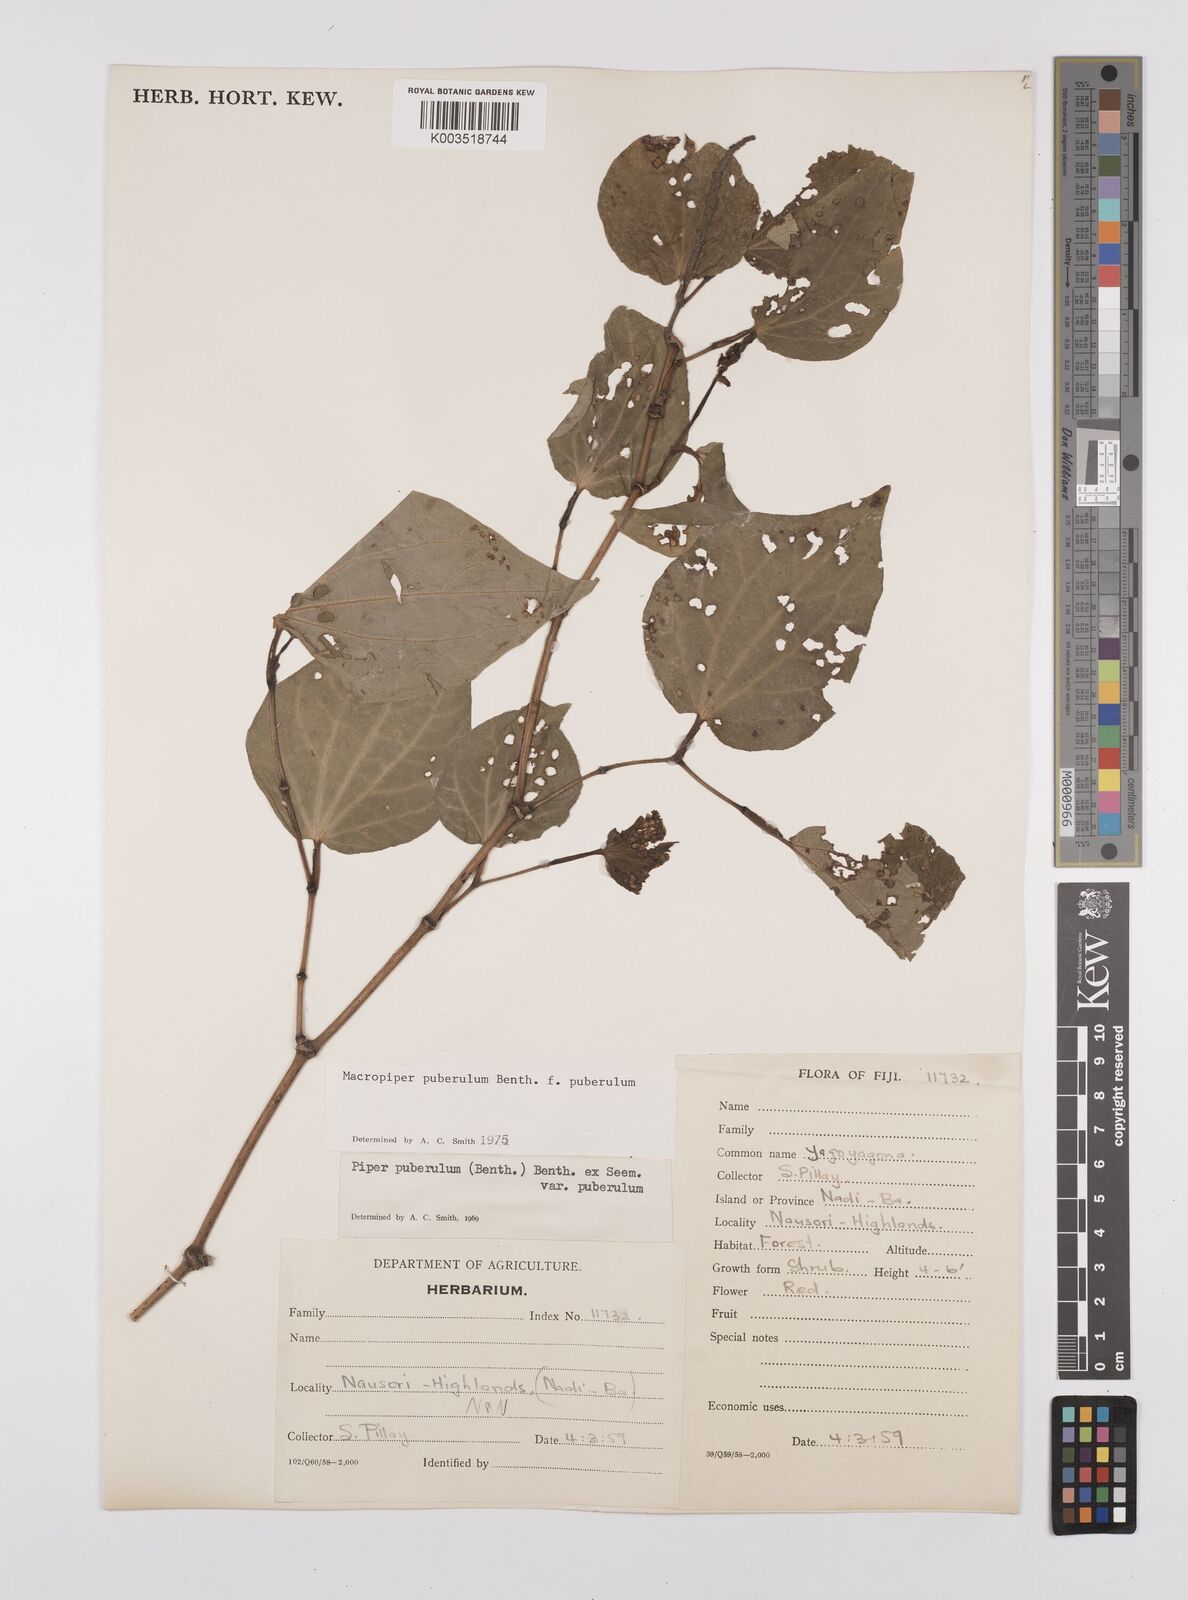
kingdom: Plantae
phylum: Tracheophyta
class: Magnoliopsida
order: Piperales
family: Piperaceae
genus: Macropiper
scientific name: Macropiper puberulum
